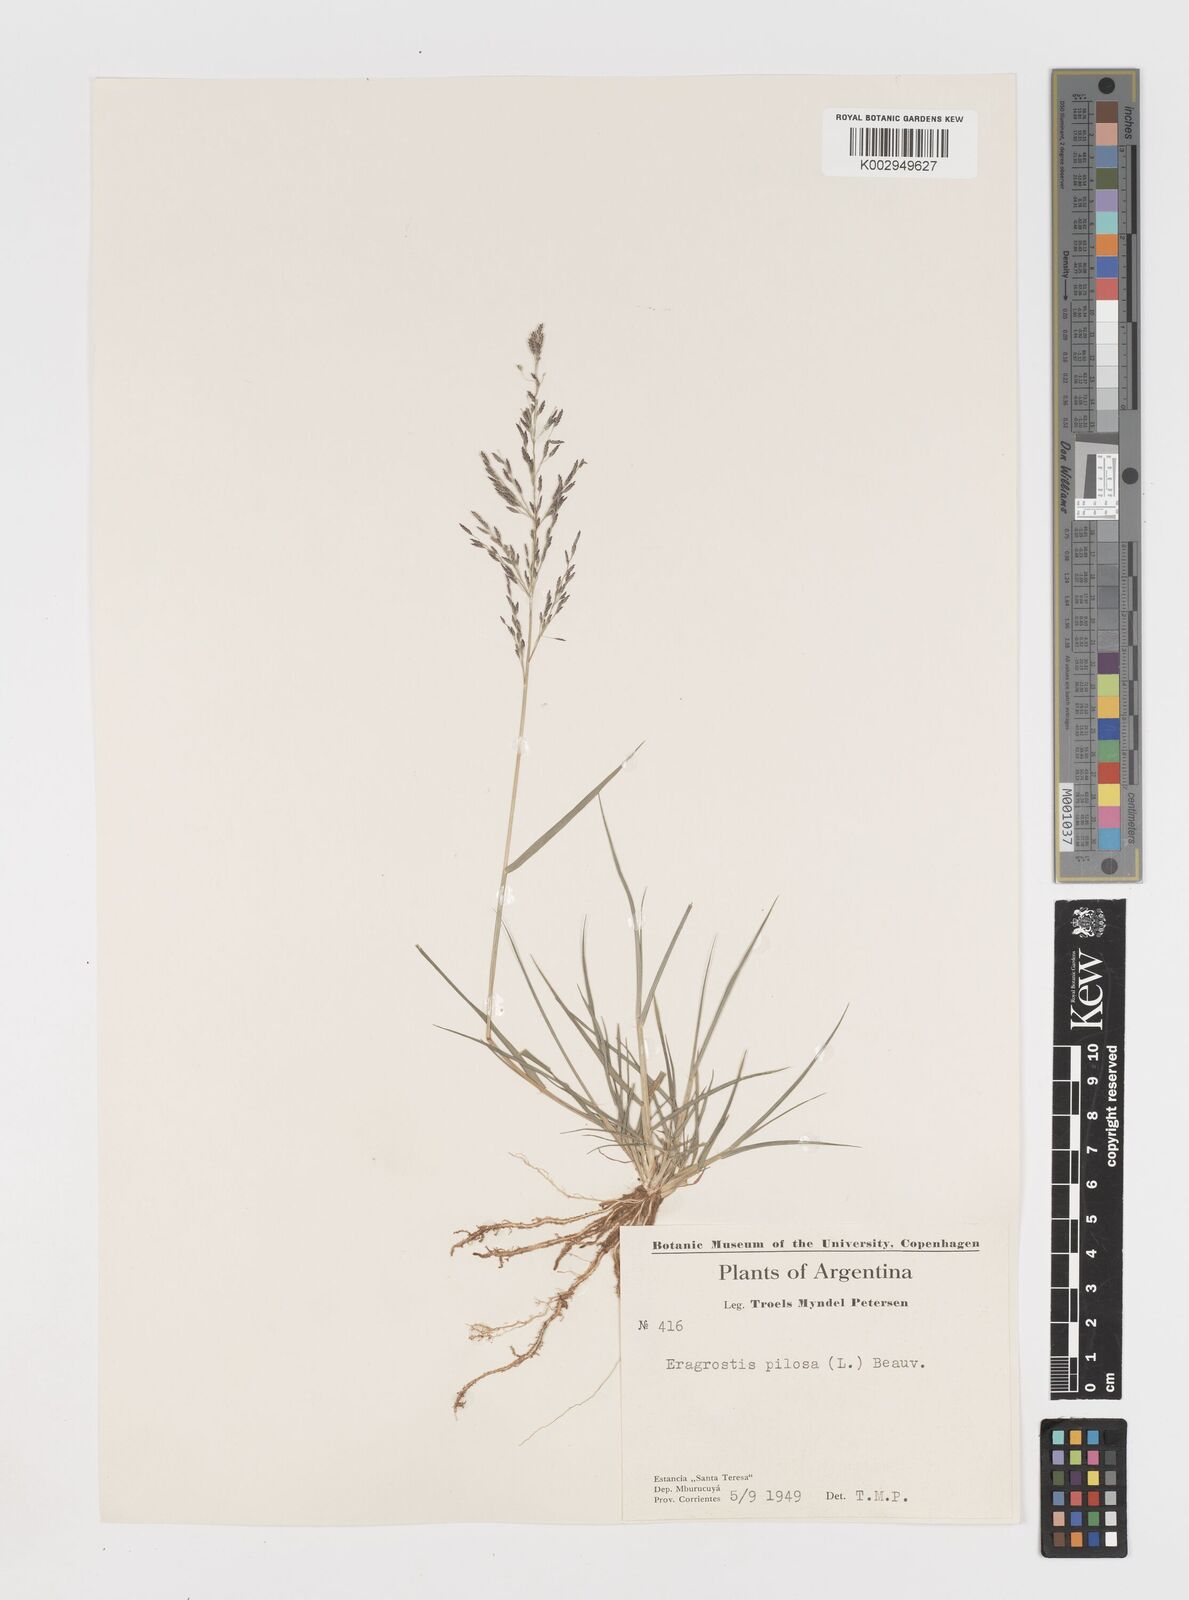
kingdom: Plantae
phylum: Tracheophyta
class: Liliopsida
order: Poales
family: Poaceae
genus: Eragrostis
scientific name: Eragrostis pilosa
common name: Indian lovegrass
